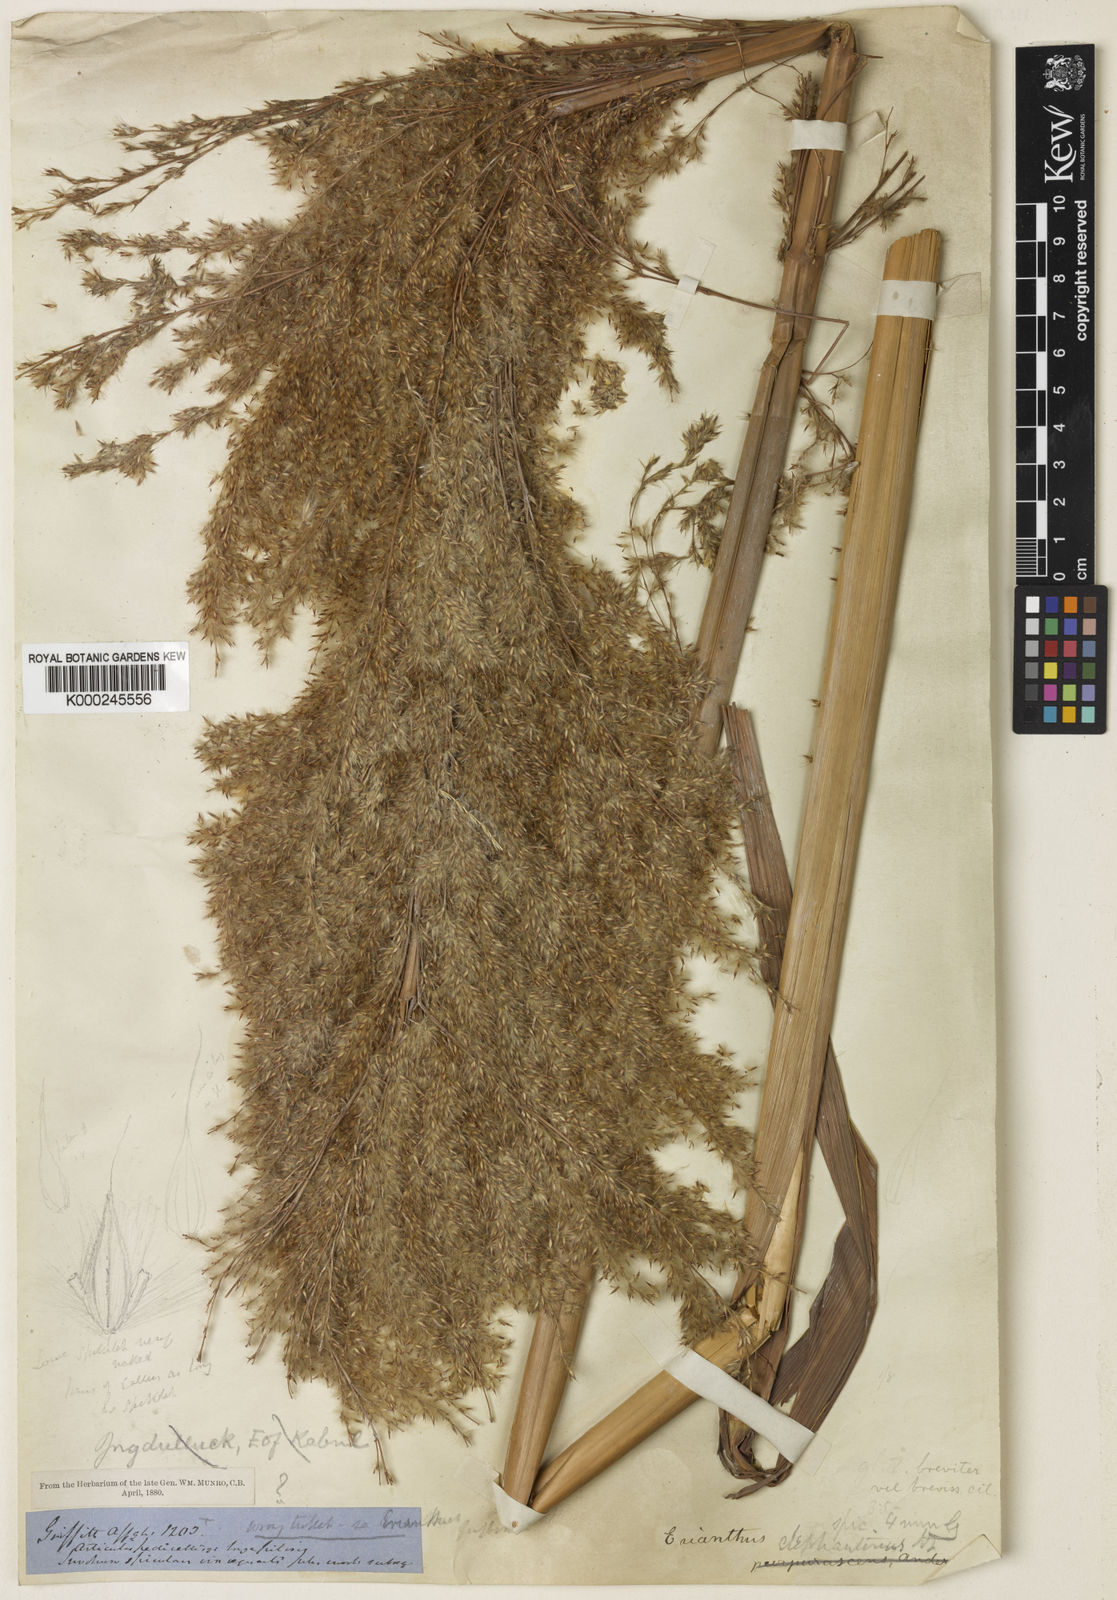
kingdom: Plantae
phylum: Tracheophyta
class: Liliopsida
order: Poales
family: Poaceae
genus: Tripidium
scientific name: Tripidium ravennae
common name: Ravenna grass
